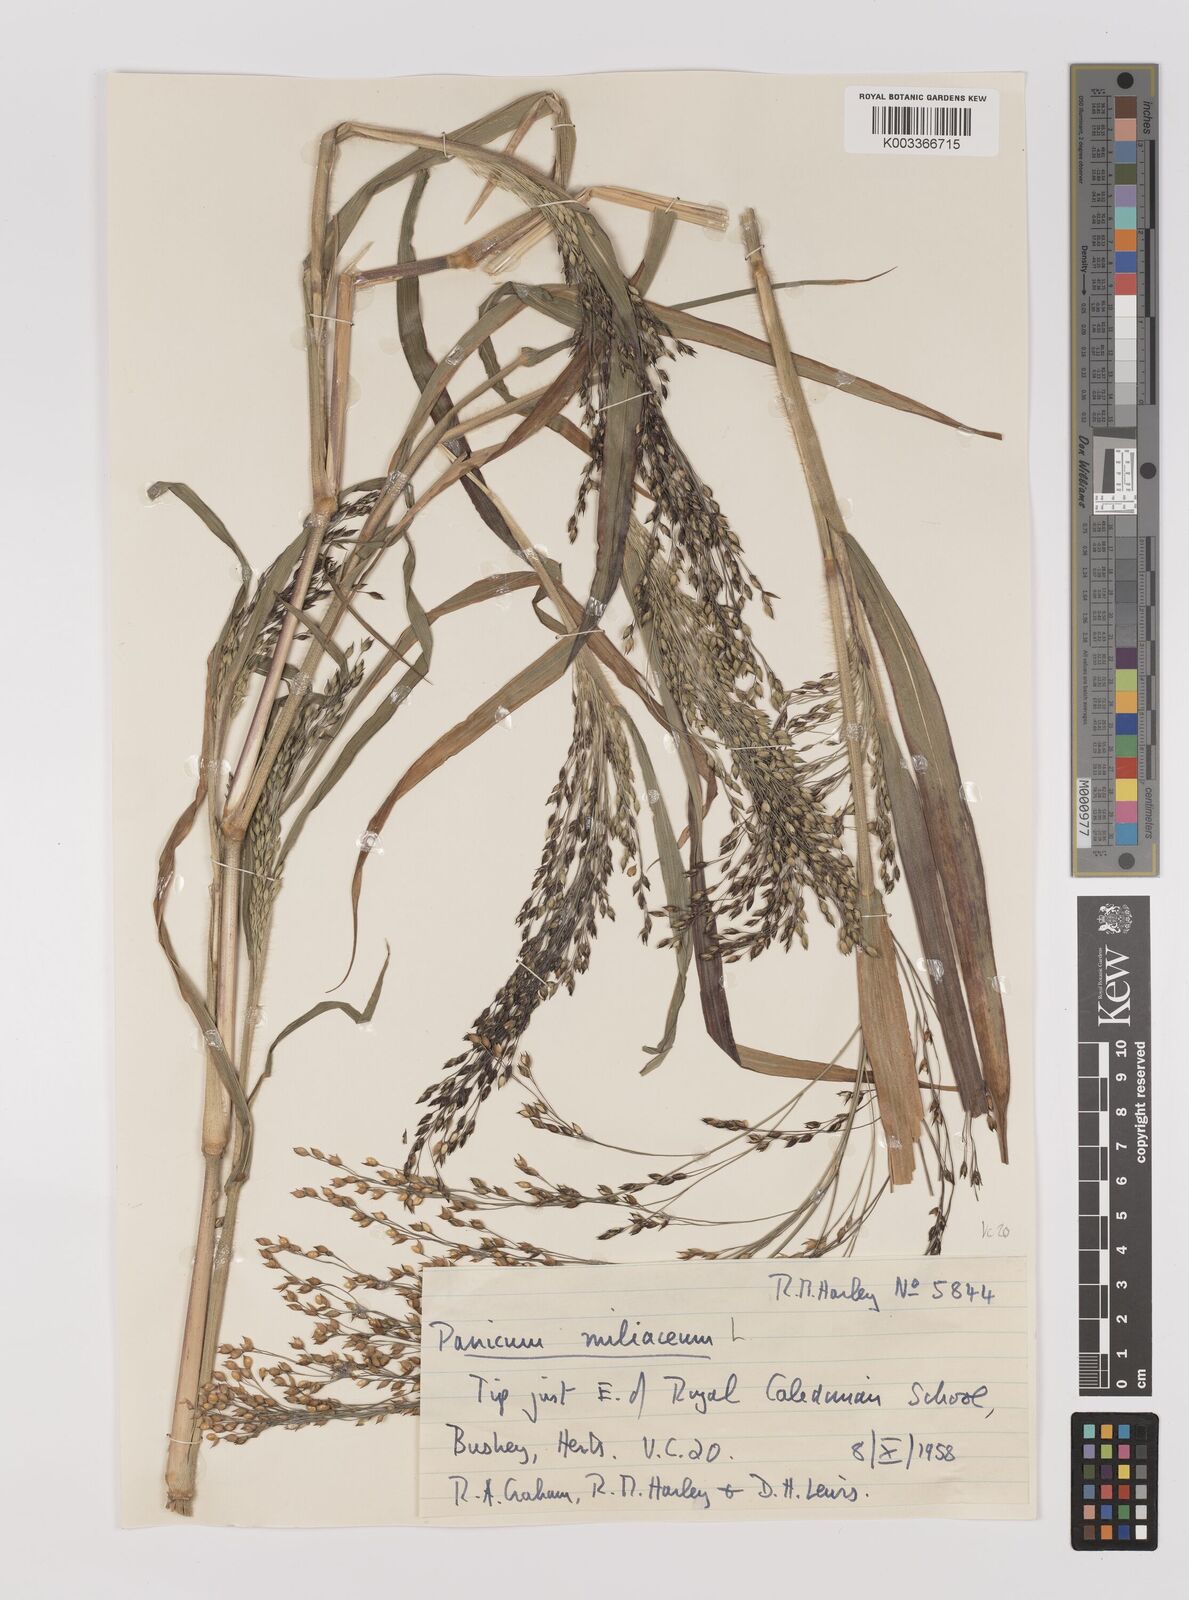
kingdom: Plantae
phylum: Tracheophyta
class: Liliopsida
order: Poales
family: Poaceae
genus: Panicum
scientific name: Panicum miliaceum
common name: Common millet
